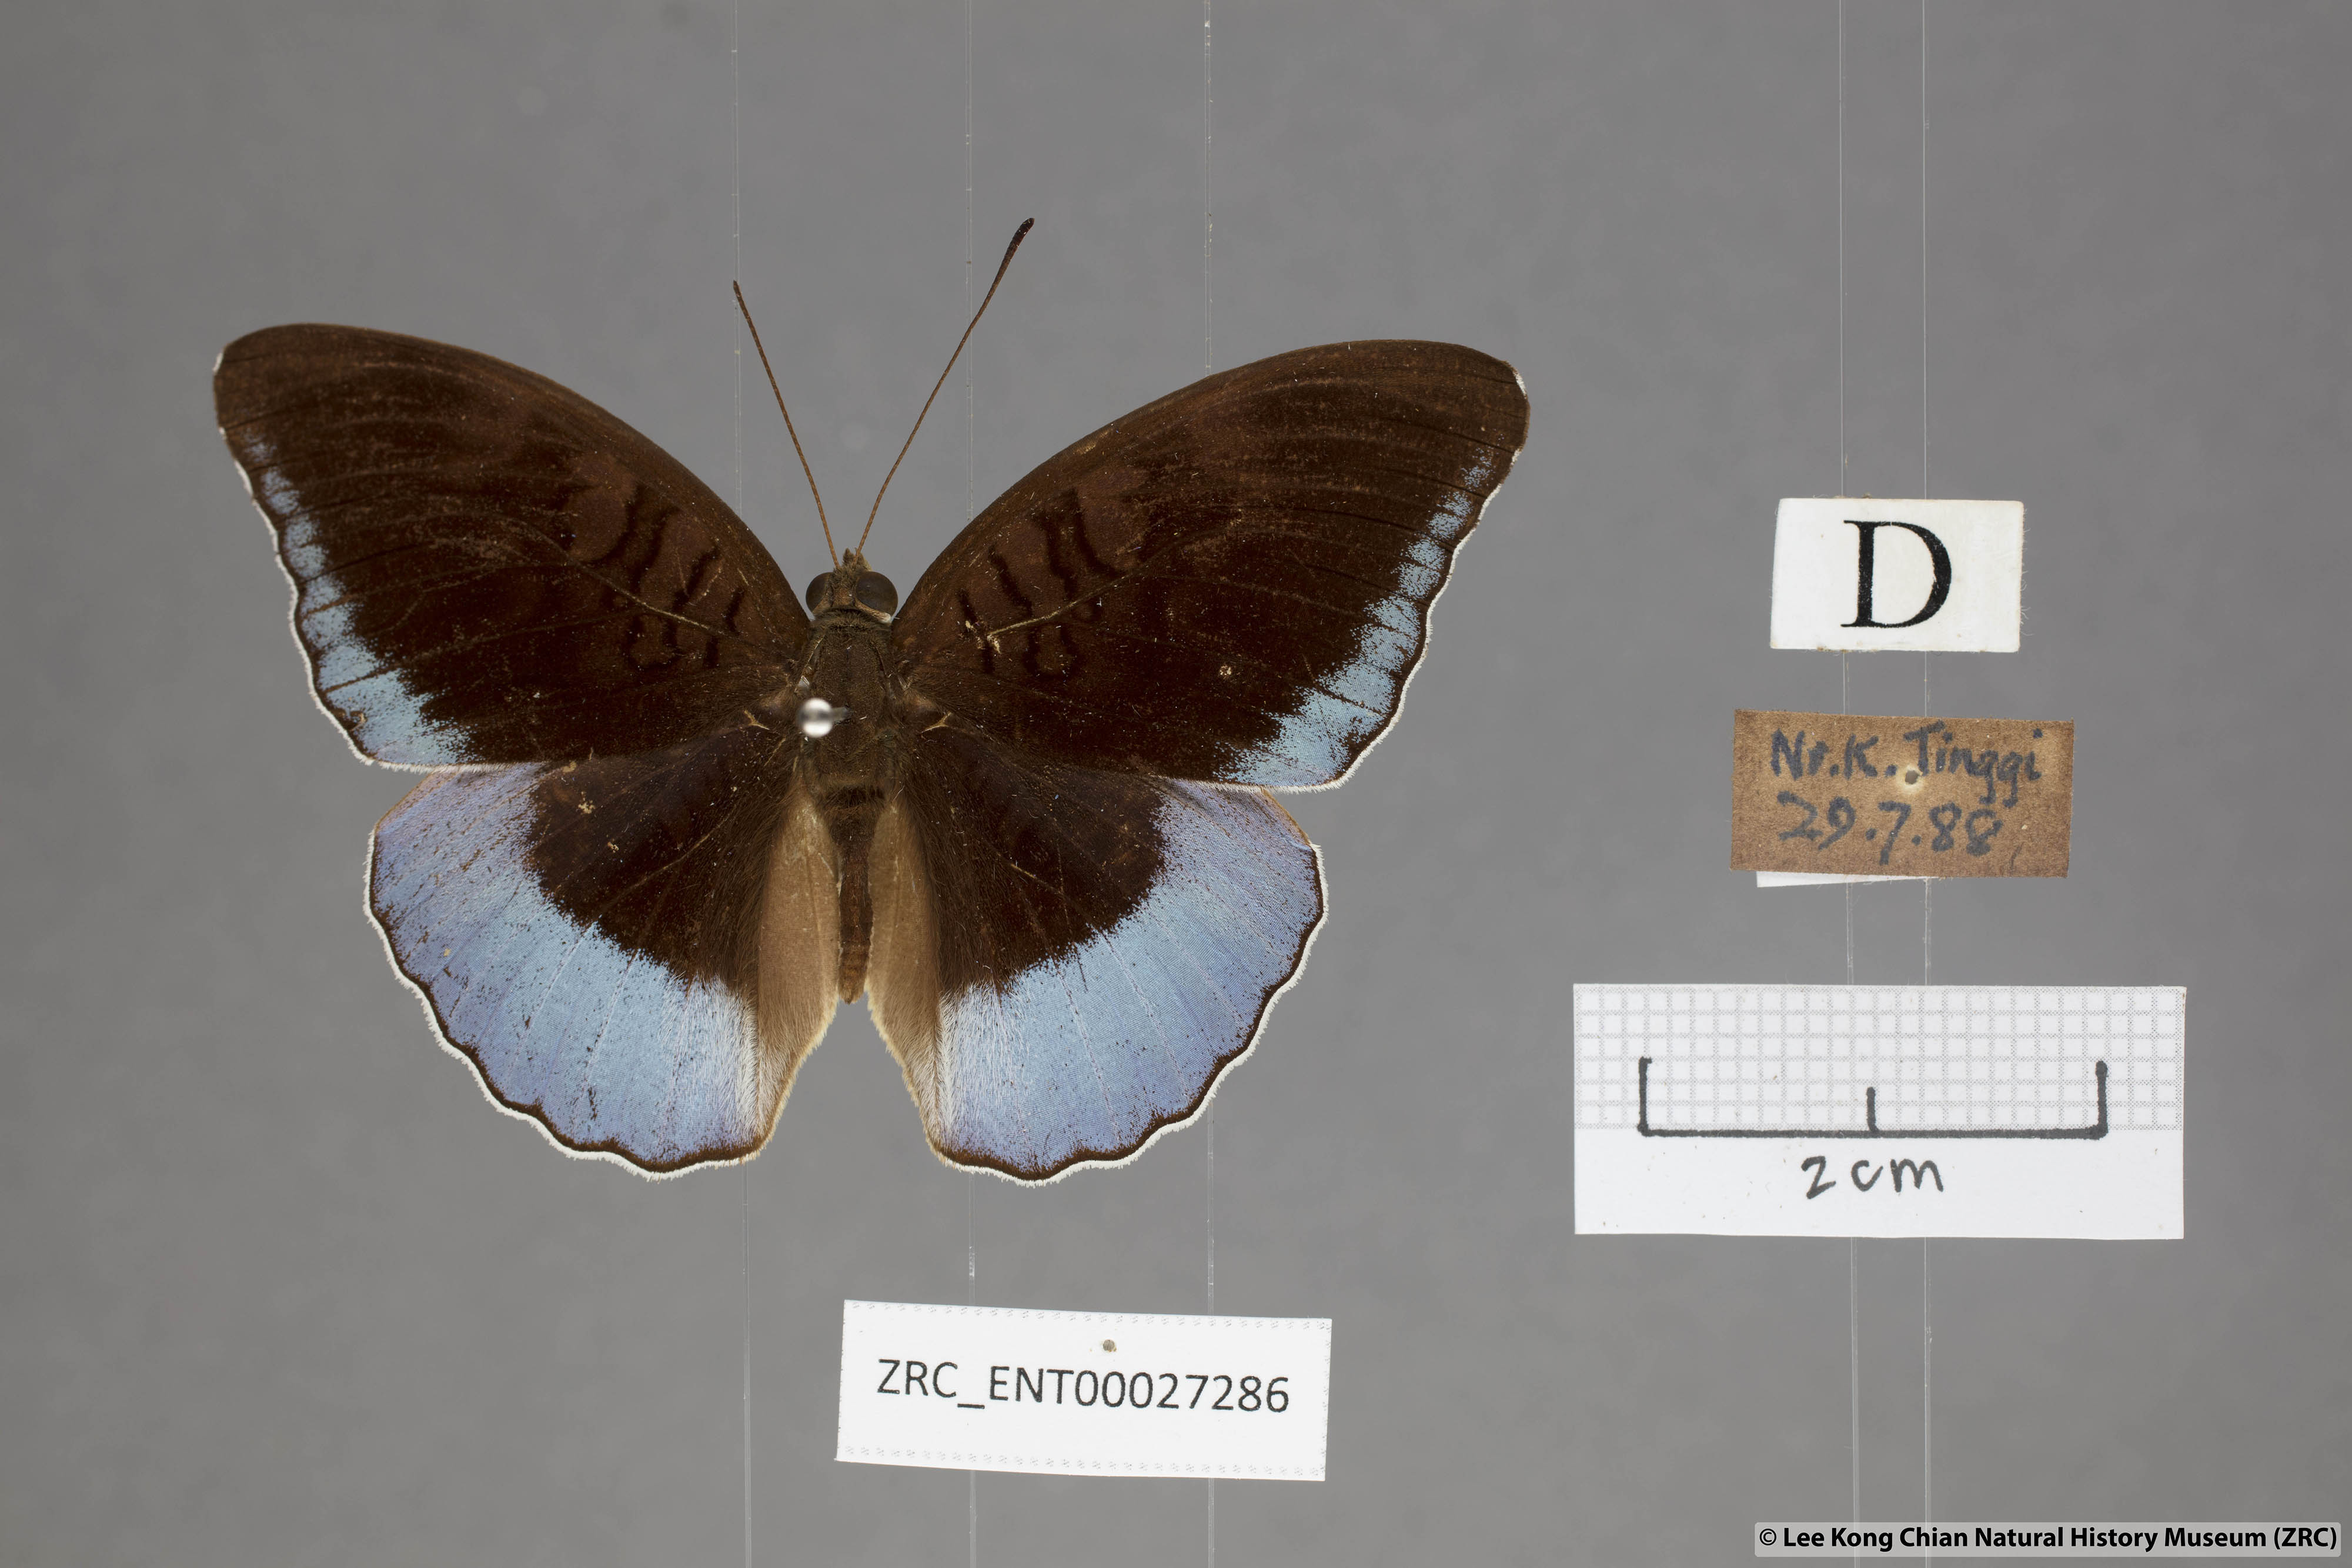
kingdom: Animalia
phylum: Arthropoda
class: Insecta
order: Lepidoptera
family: Nymphalidae
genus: Tanaecia
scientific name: Tanaecia iapis
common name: Horsfield's baron
